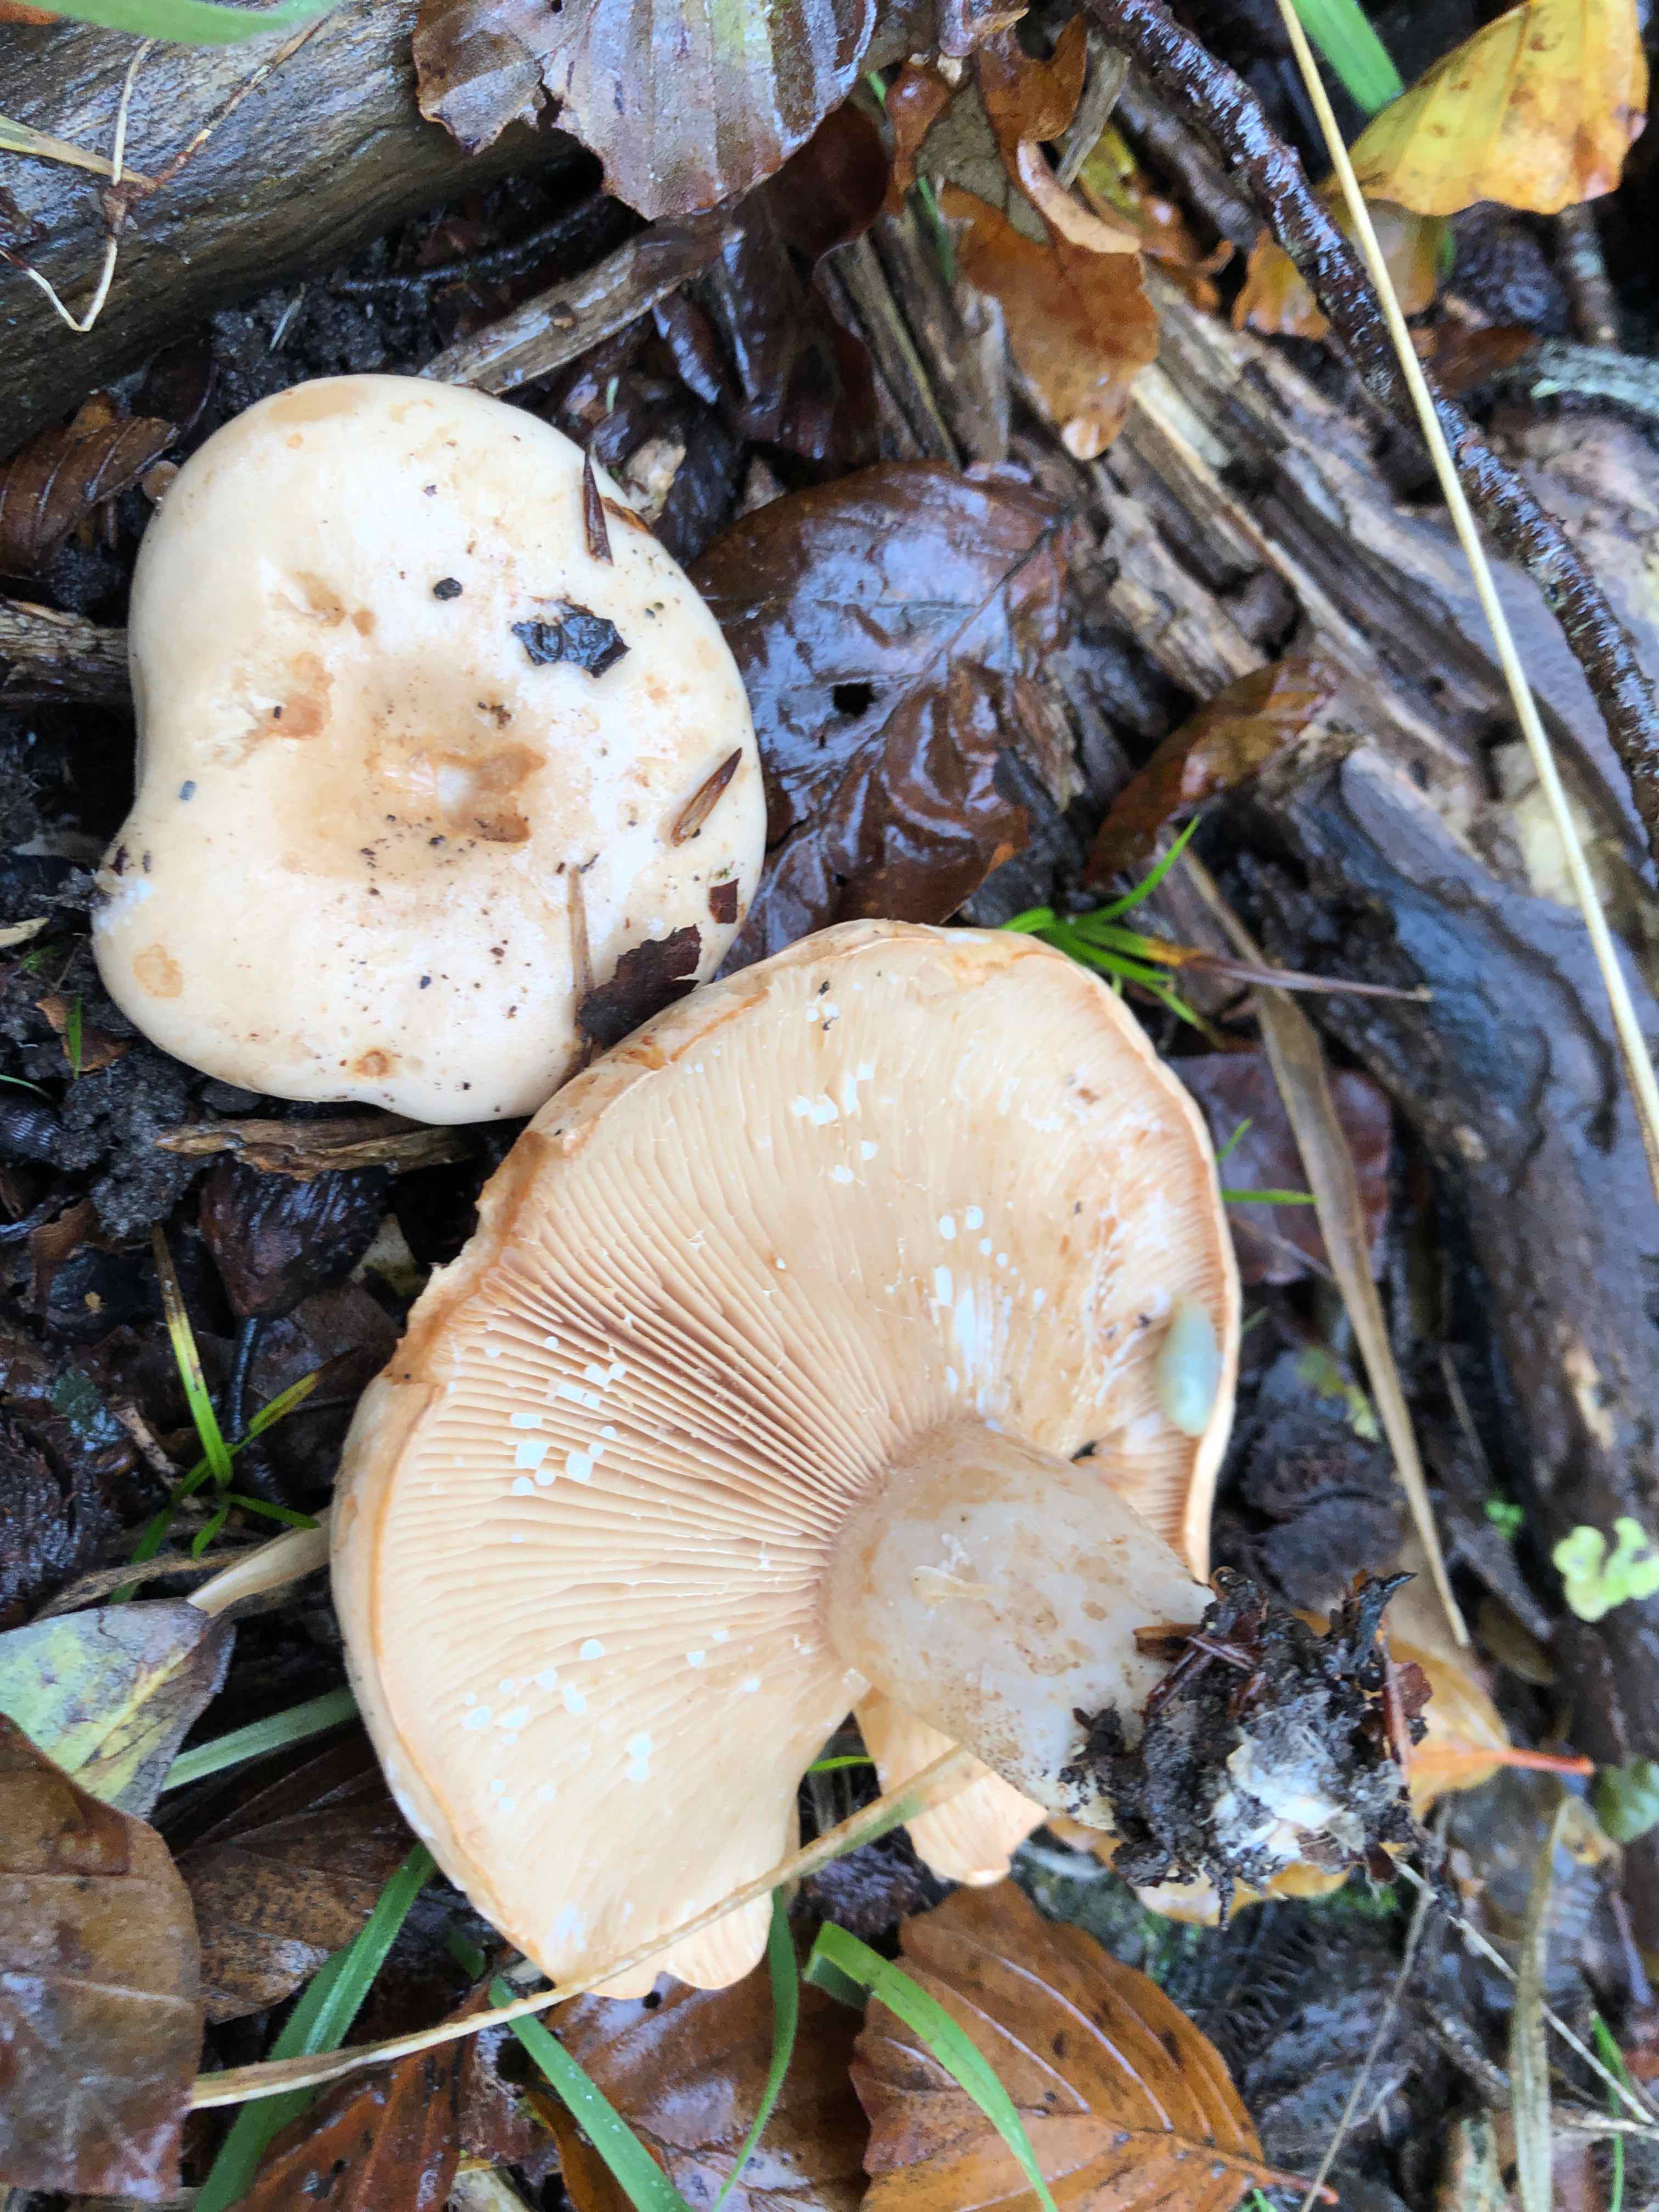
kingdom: Fungi
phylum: Basidiomycota
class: Agaricomycetes
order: Russulales
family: Russulaceae
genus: Lactarius
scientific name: Lactarius pallidus
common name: bleg mælkehat
